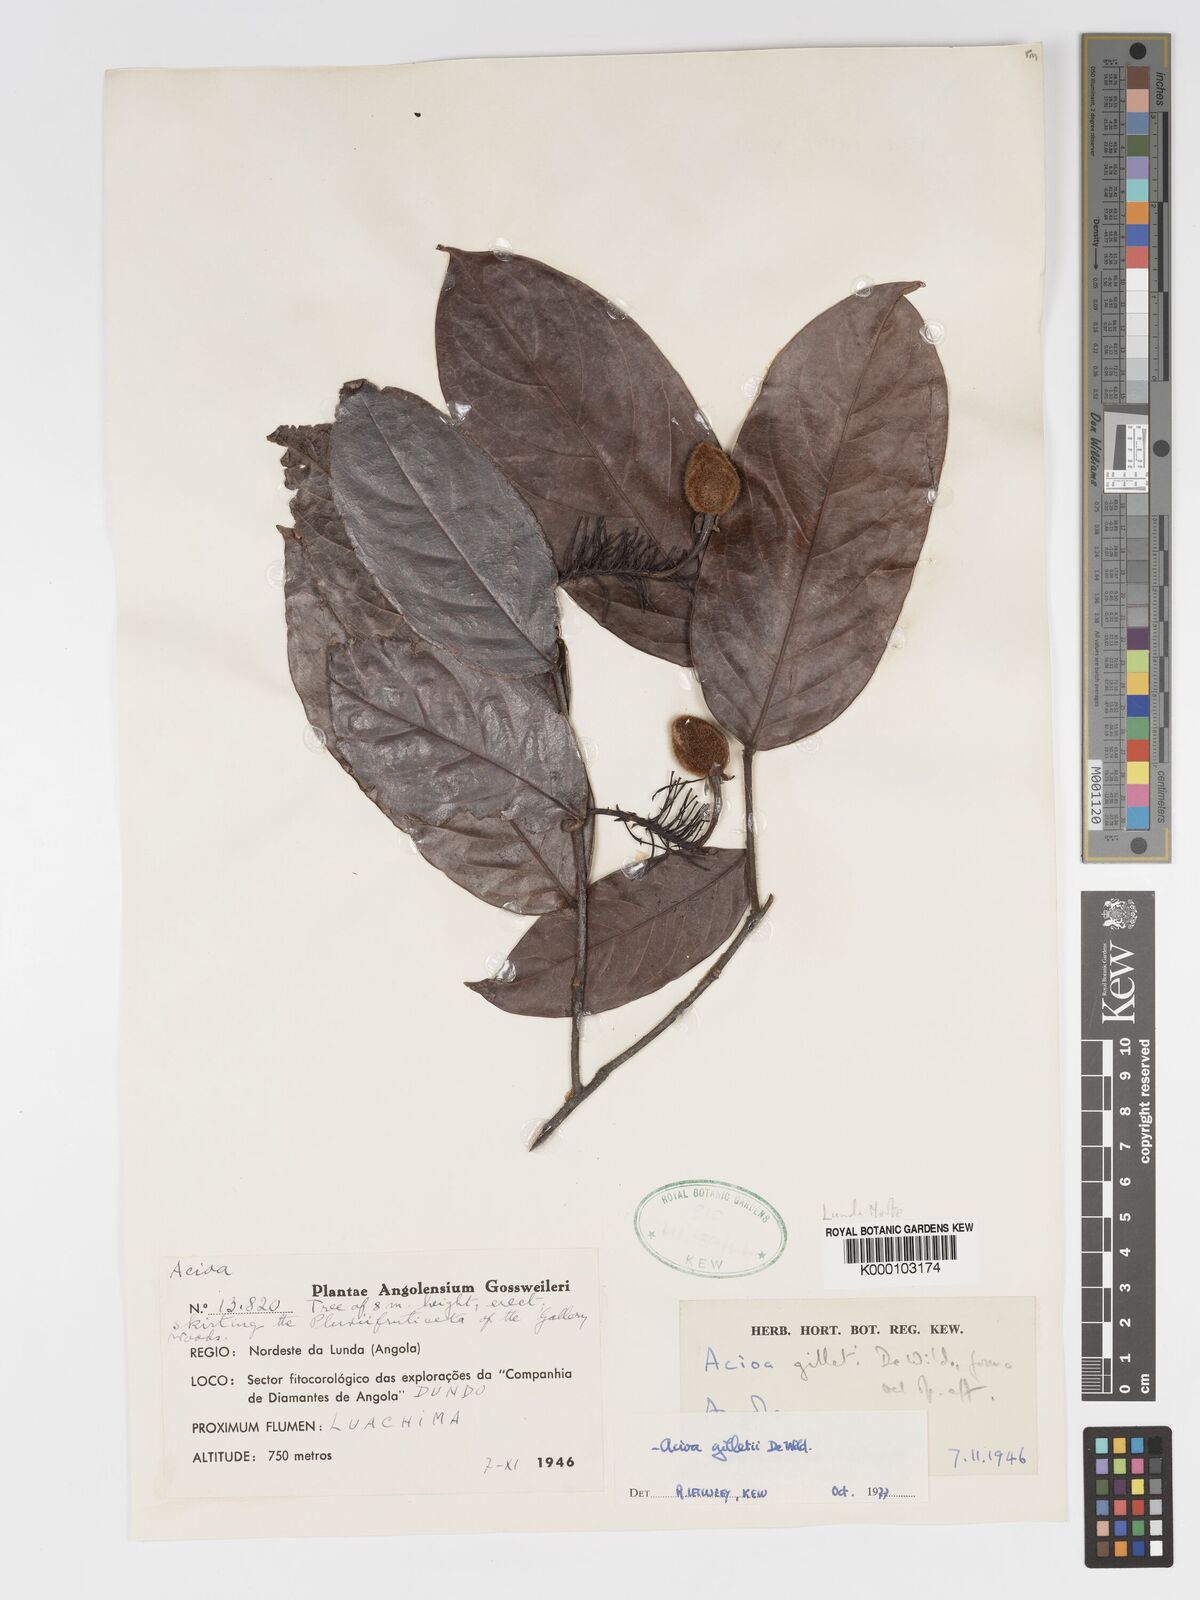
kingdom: Plantae
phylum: Tracheophyta
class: Magnoliopsida
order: Malpighiales
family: Chrysobalanaceae
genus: Dactyladenia
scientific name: Dactyladenia gilletii
